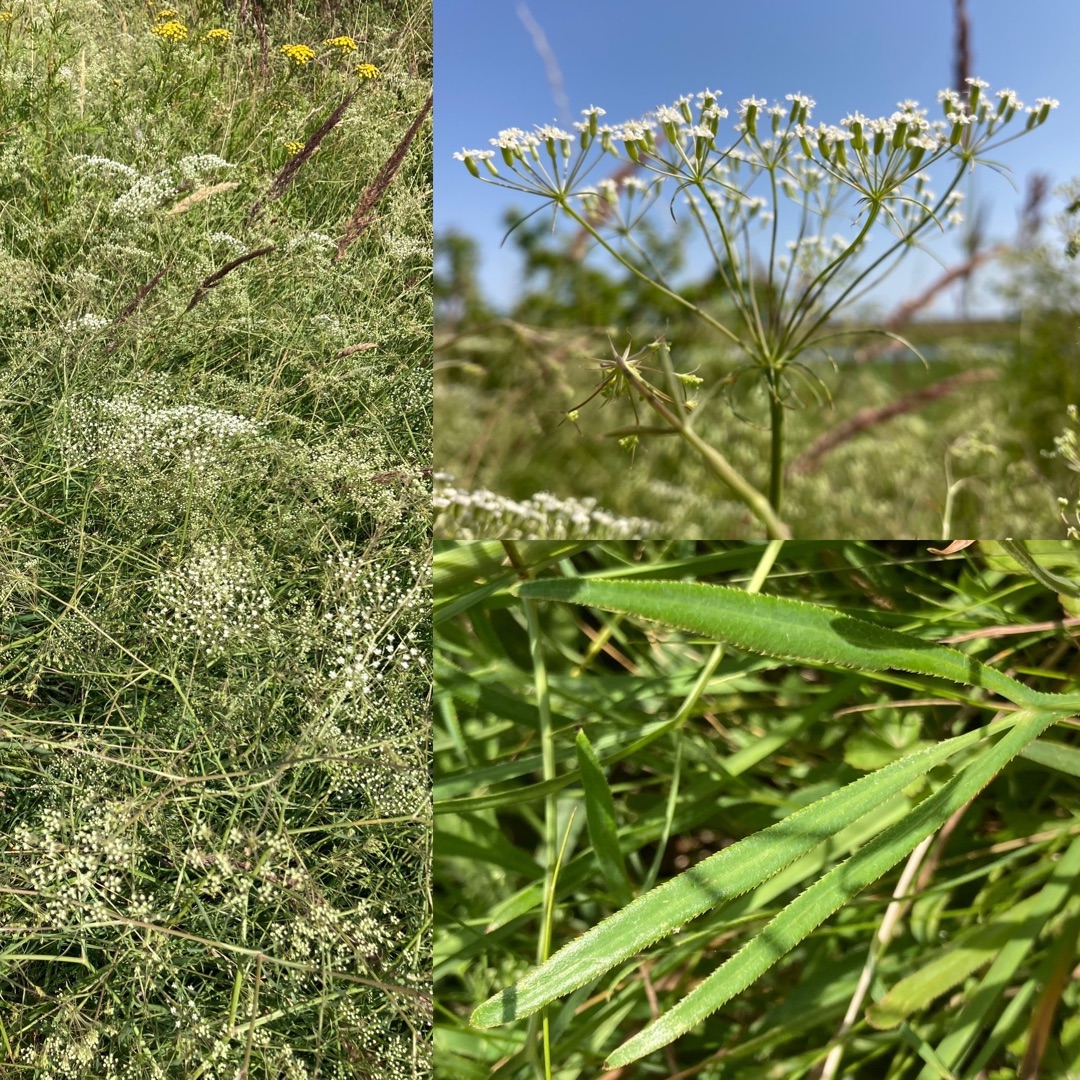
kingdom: Plantae
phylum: Tracheophyta
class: Magnoliopsida
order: Apiales
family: Apiaceae
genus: Falcaria
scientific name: Falcaria vulgaris
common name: Seglblad
